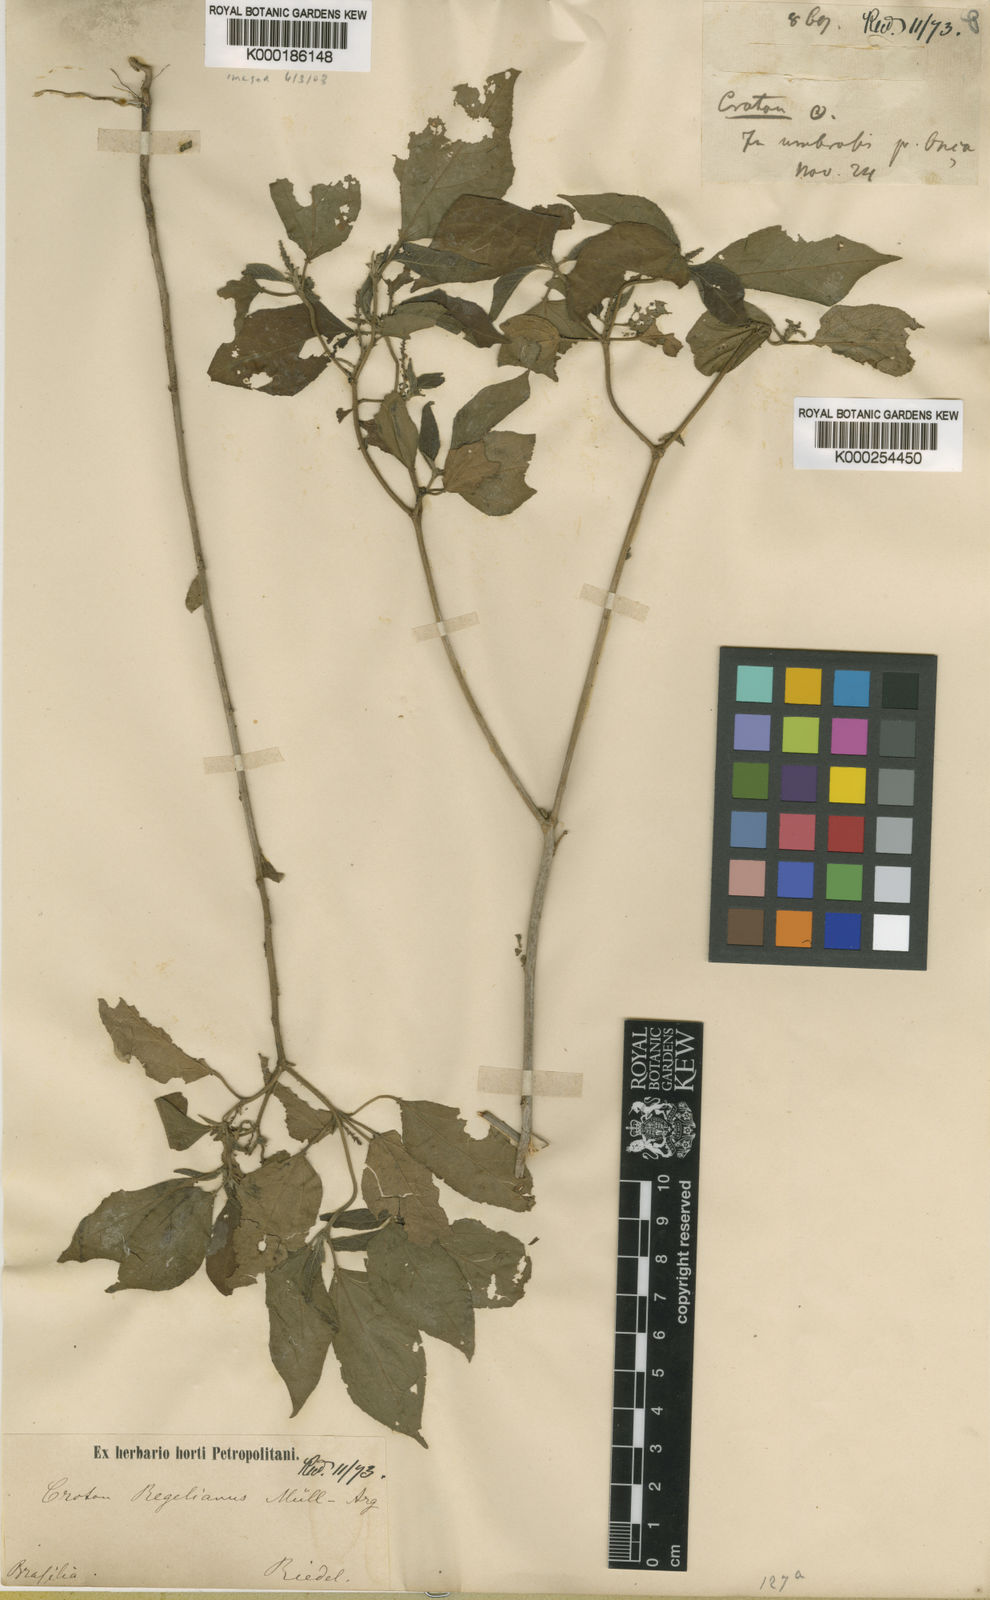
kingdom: Plantae
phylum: Tracheophyta
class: Magnoliopsida
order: Malpighiales
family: Euphorbiaceae
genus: Croton
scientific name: Croton
